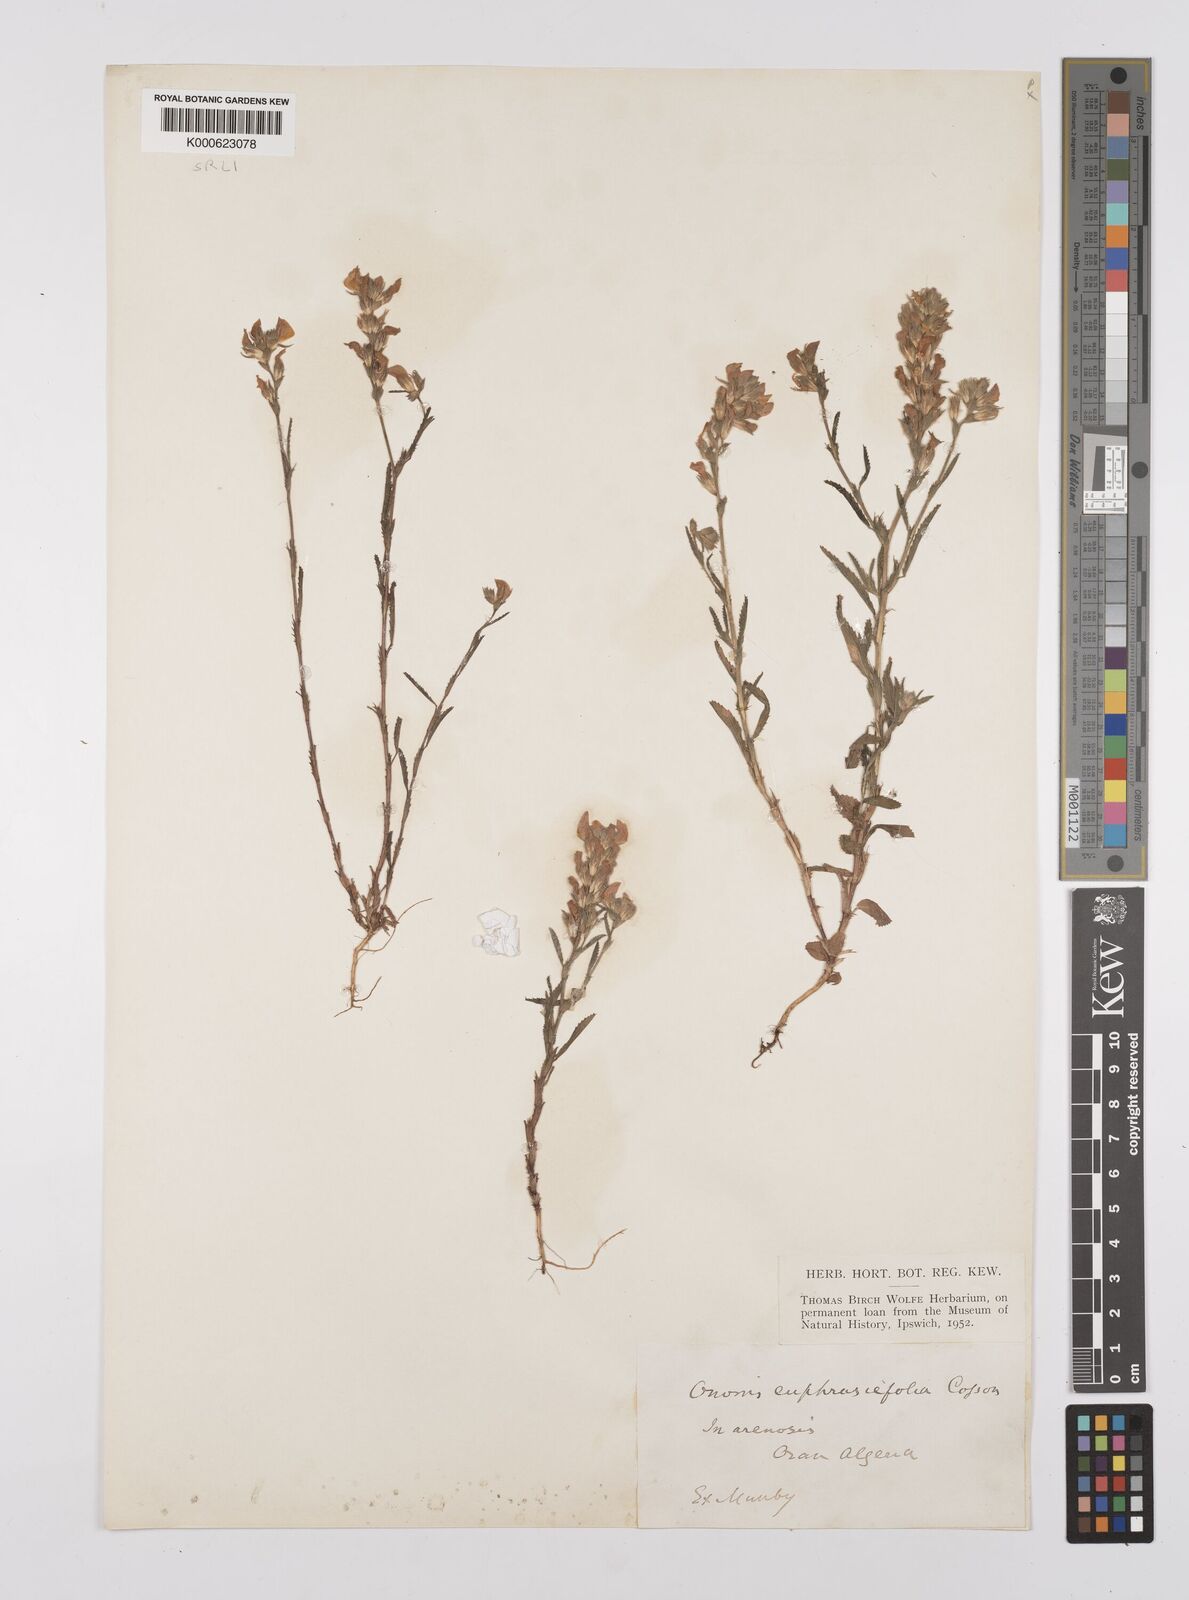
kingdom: Plantae
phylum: Tracheophyta
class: Magnoliopsida
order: Fabales
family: Fabaceae
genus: Ononis
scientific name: Ononis
